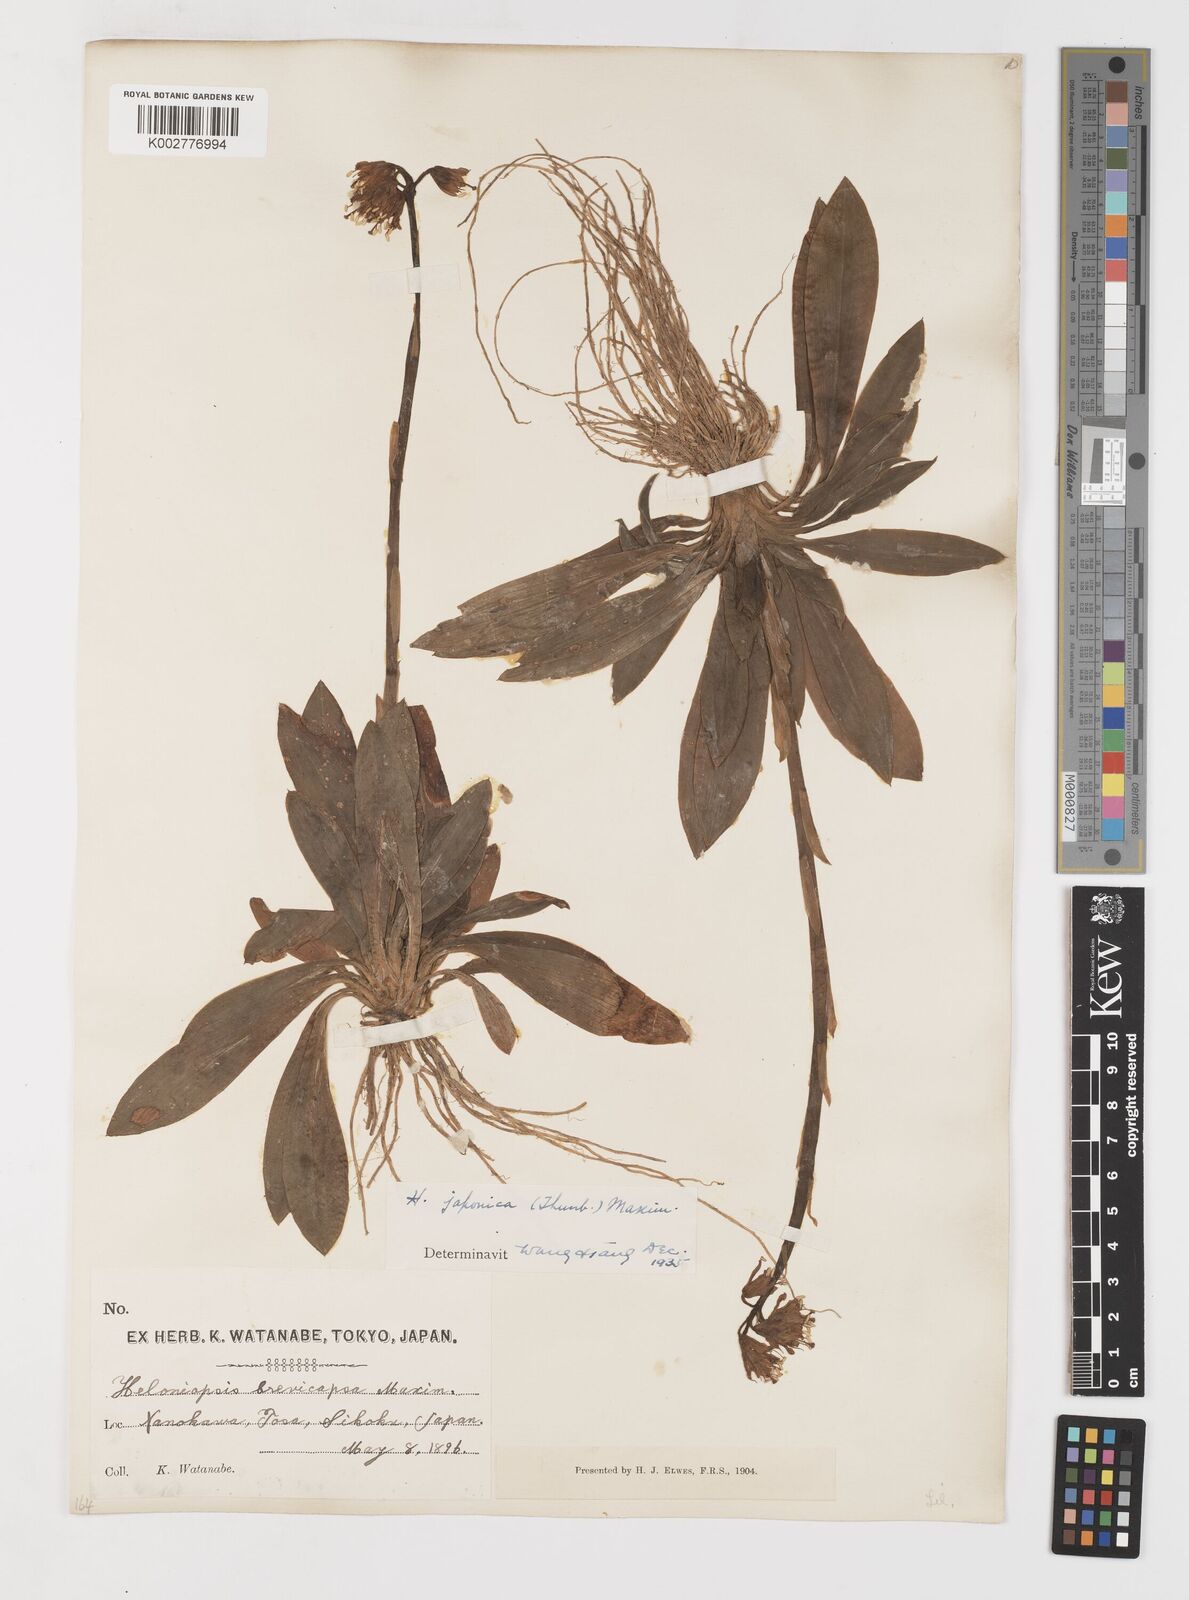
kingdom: Plantae
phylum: Tracheophyta
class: Liliopsida
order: Liliales
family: Melanthiaceae
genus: Helonias
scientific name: Helonias orientalis
